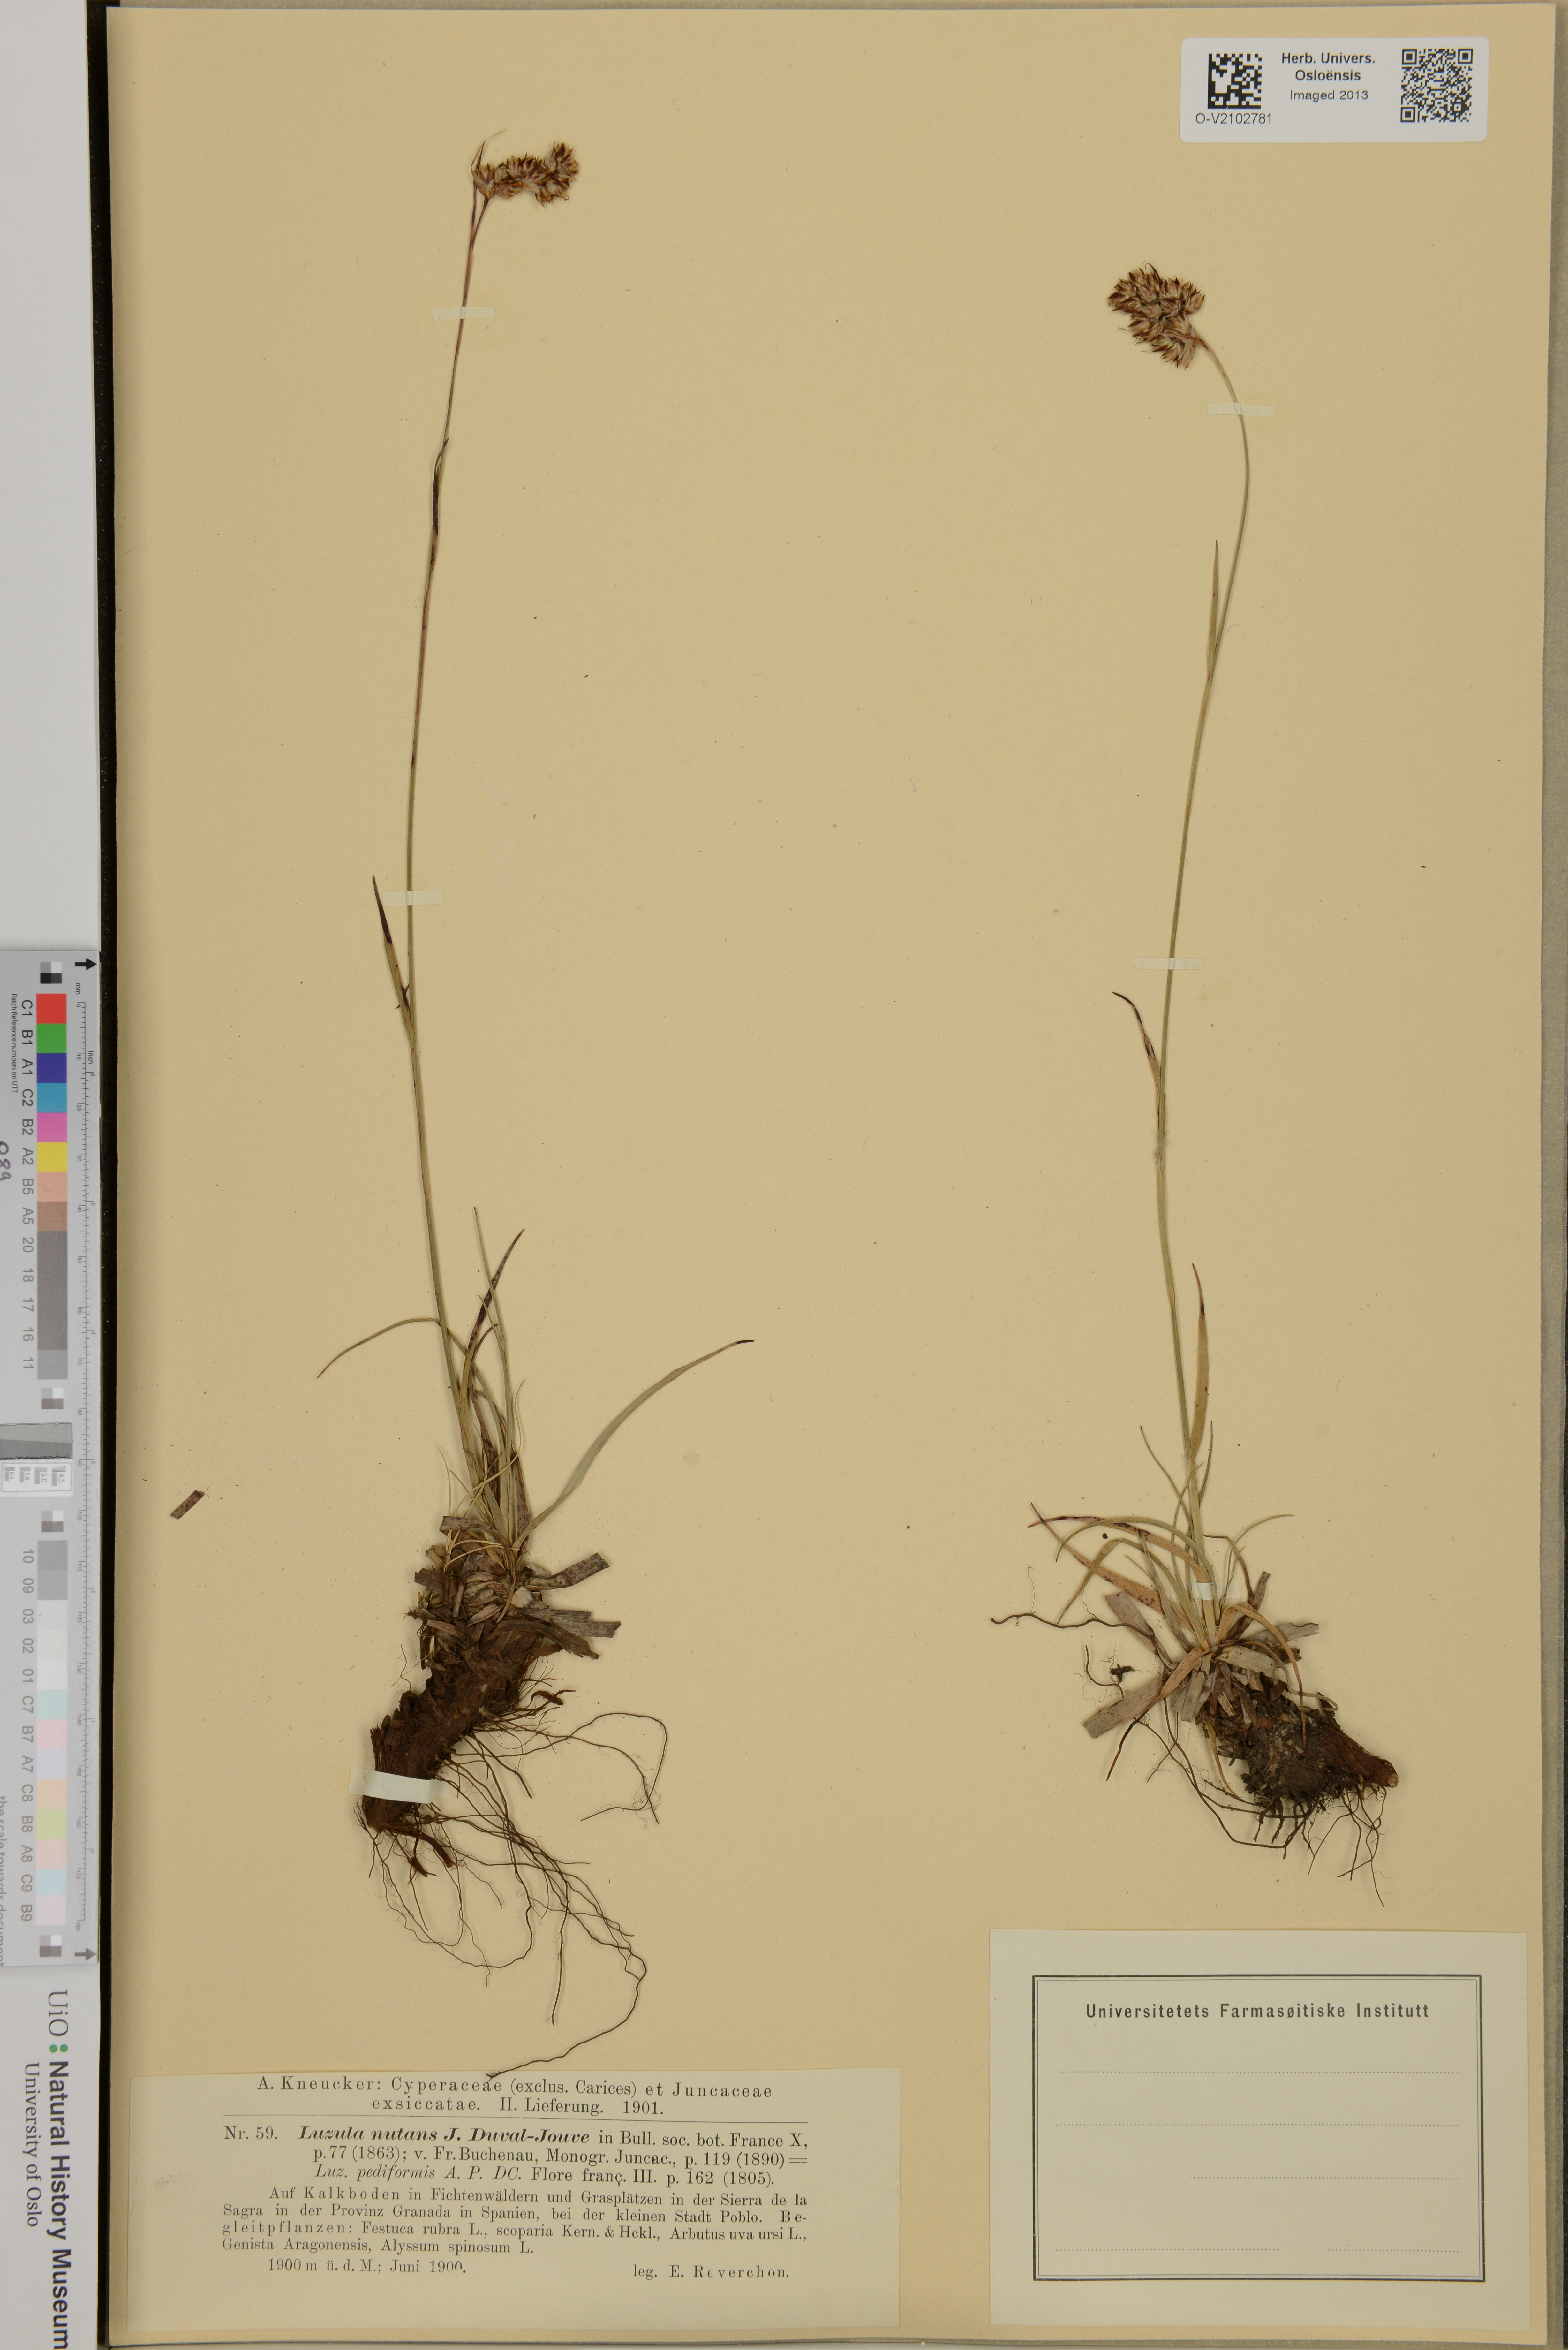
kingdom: Plantae
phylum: Tracheophyta
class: Liliopsida
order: Poales
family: Juncaceae
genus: Luzula
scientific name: Luzula pediformis
